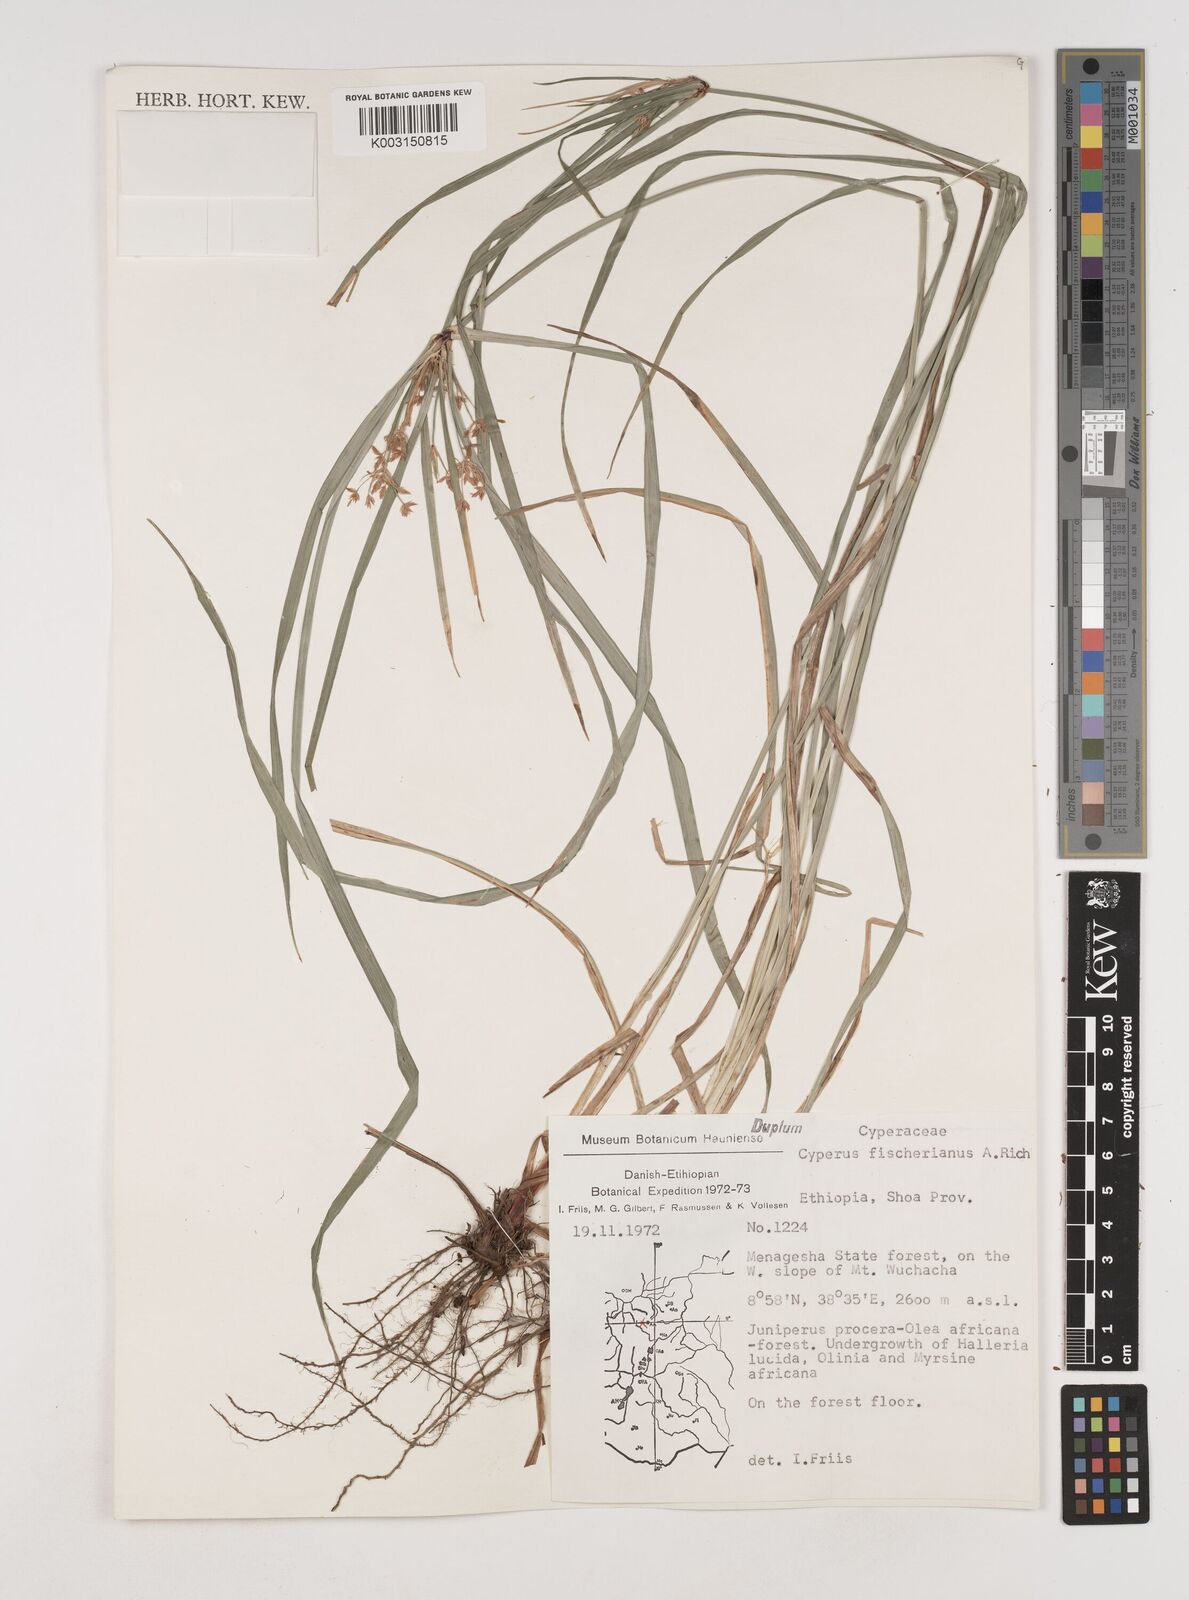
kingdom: Plantae
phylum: Tracheophyta
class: Liliopsida
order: Poales
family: Cyperaceae
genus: Cyperus
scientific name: Cyperus fischerianus
